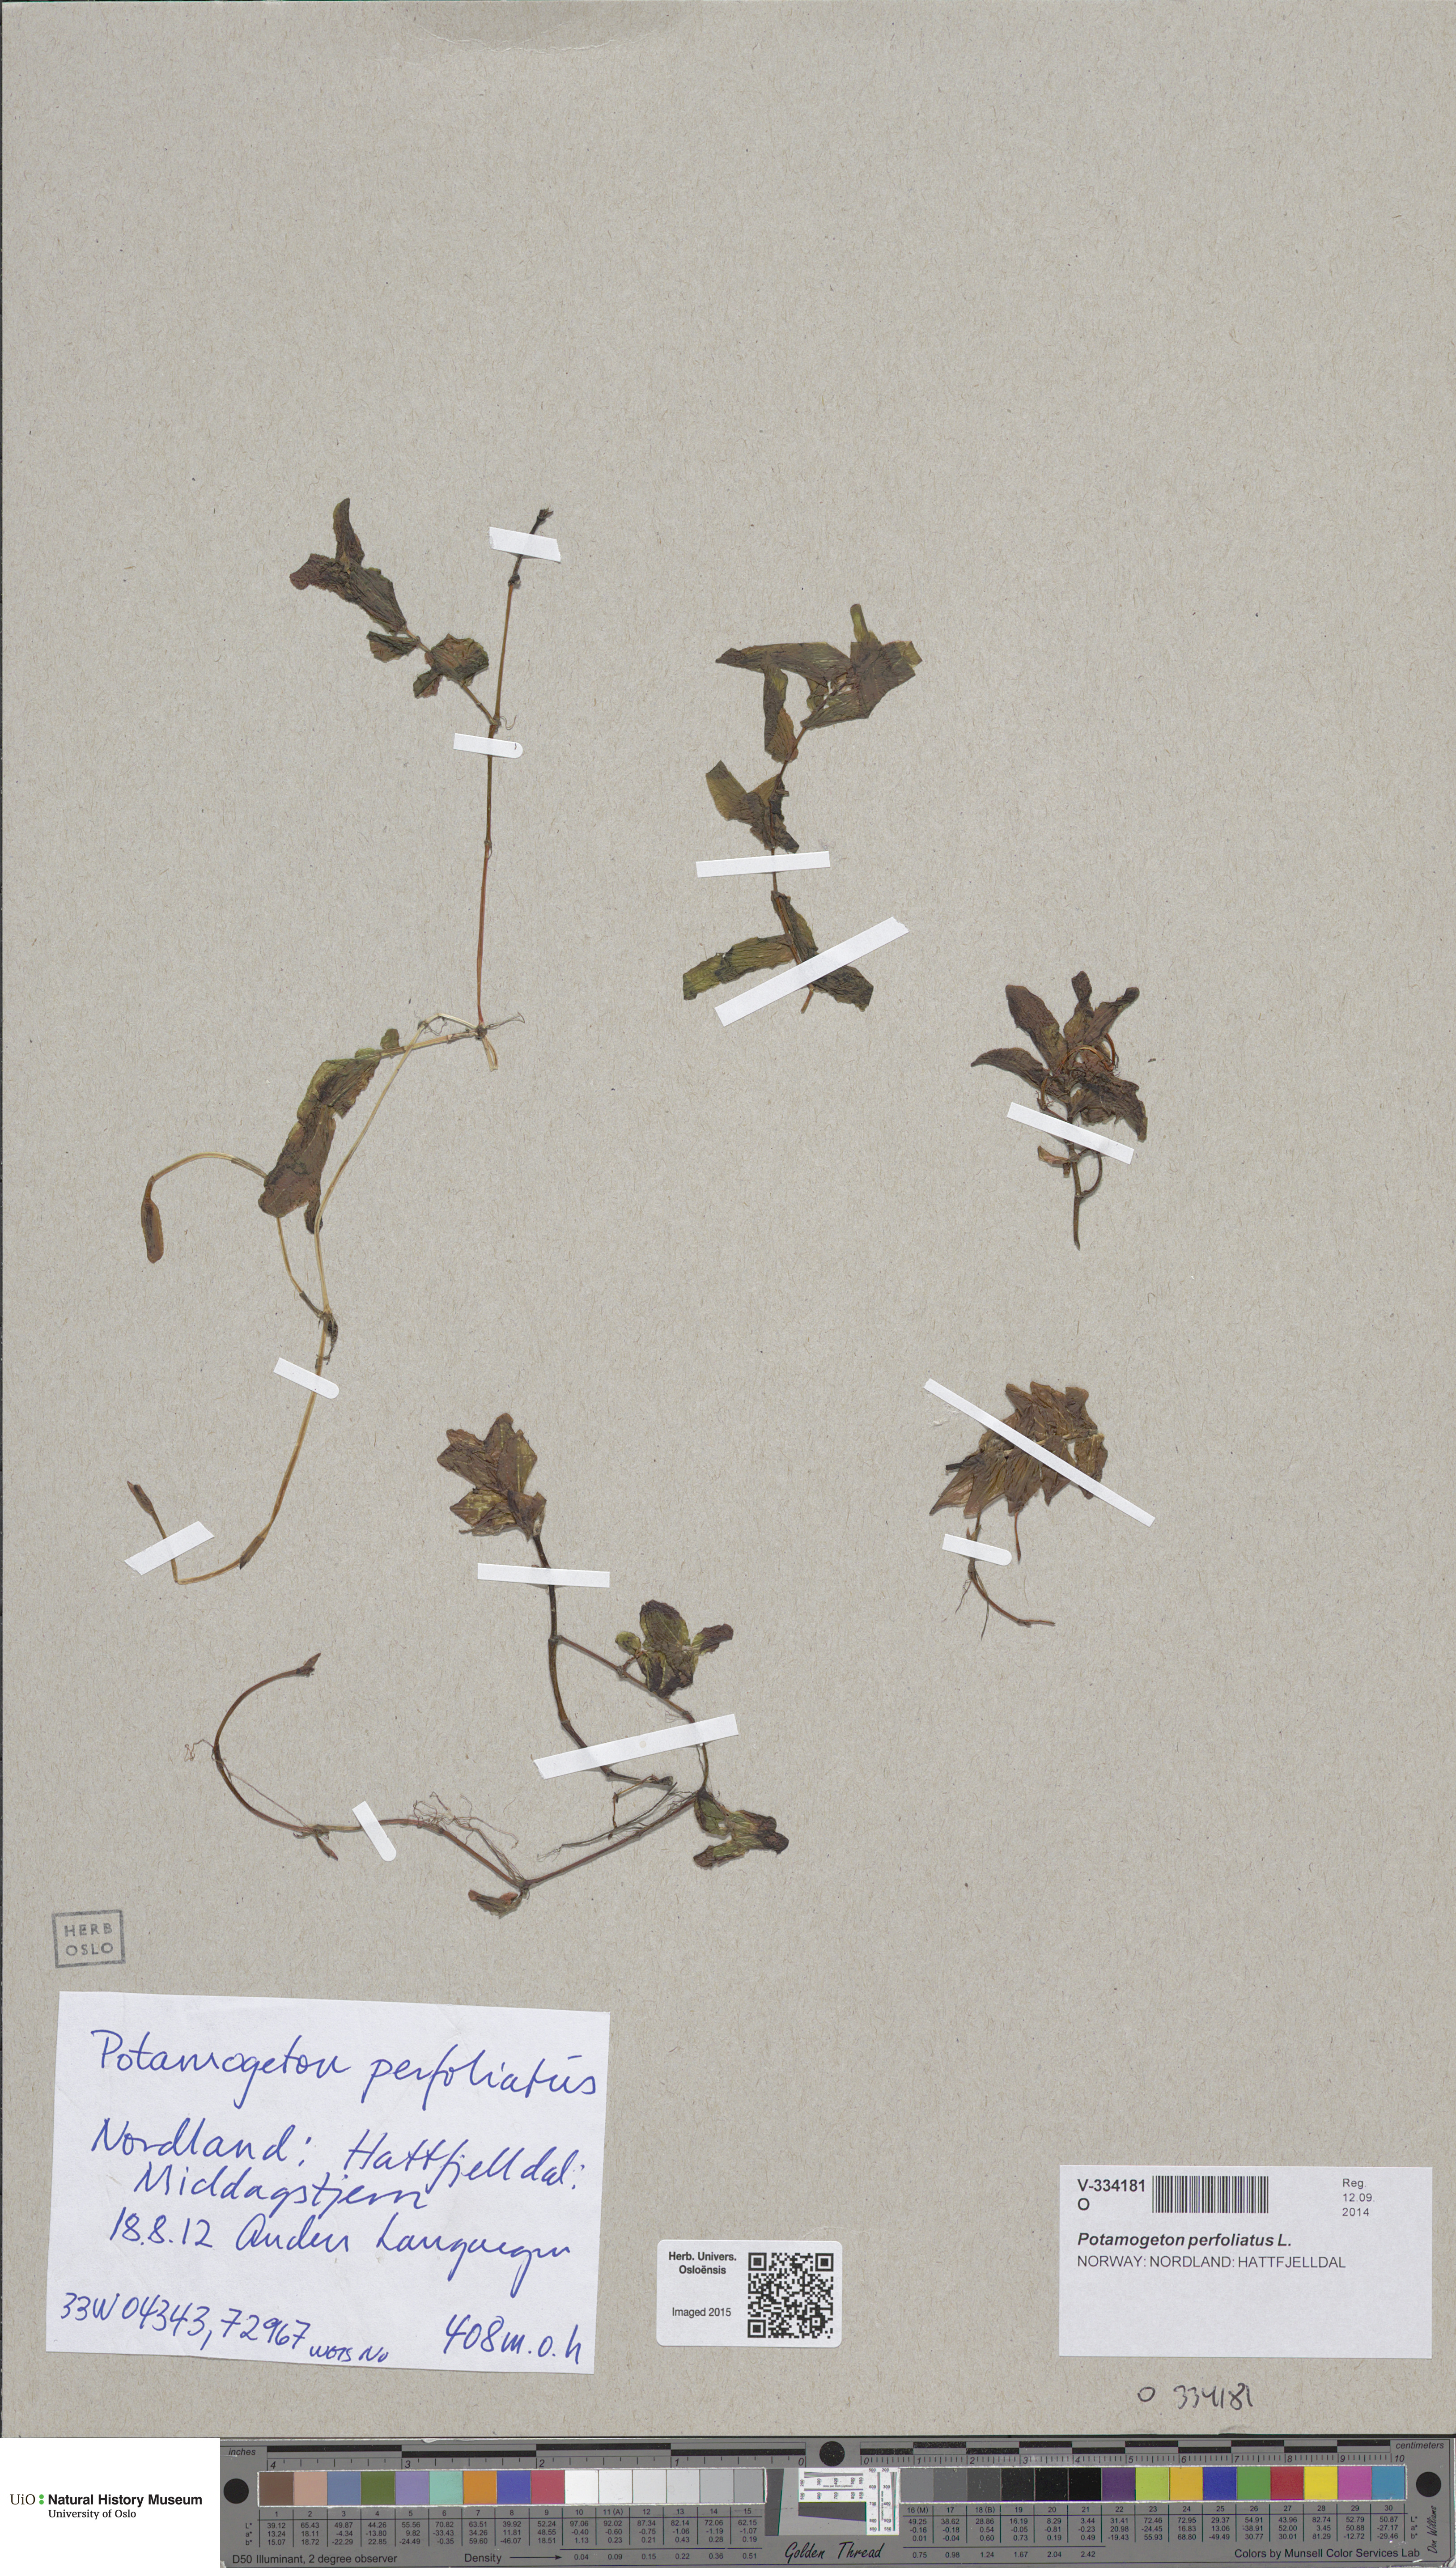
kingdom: Plantae
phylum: Tracheophyta
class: Liliopsida
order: Alismatales
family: Potamogetonaceae
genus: Potamogeton
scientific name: Potamogeton perfoliatus
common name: Perfoliate pondweed
